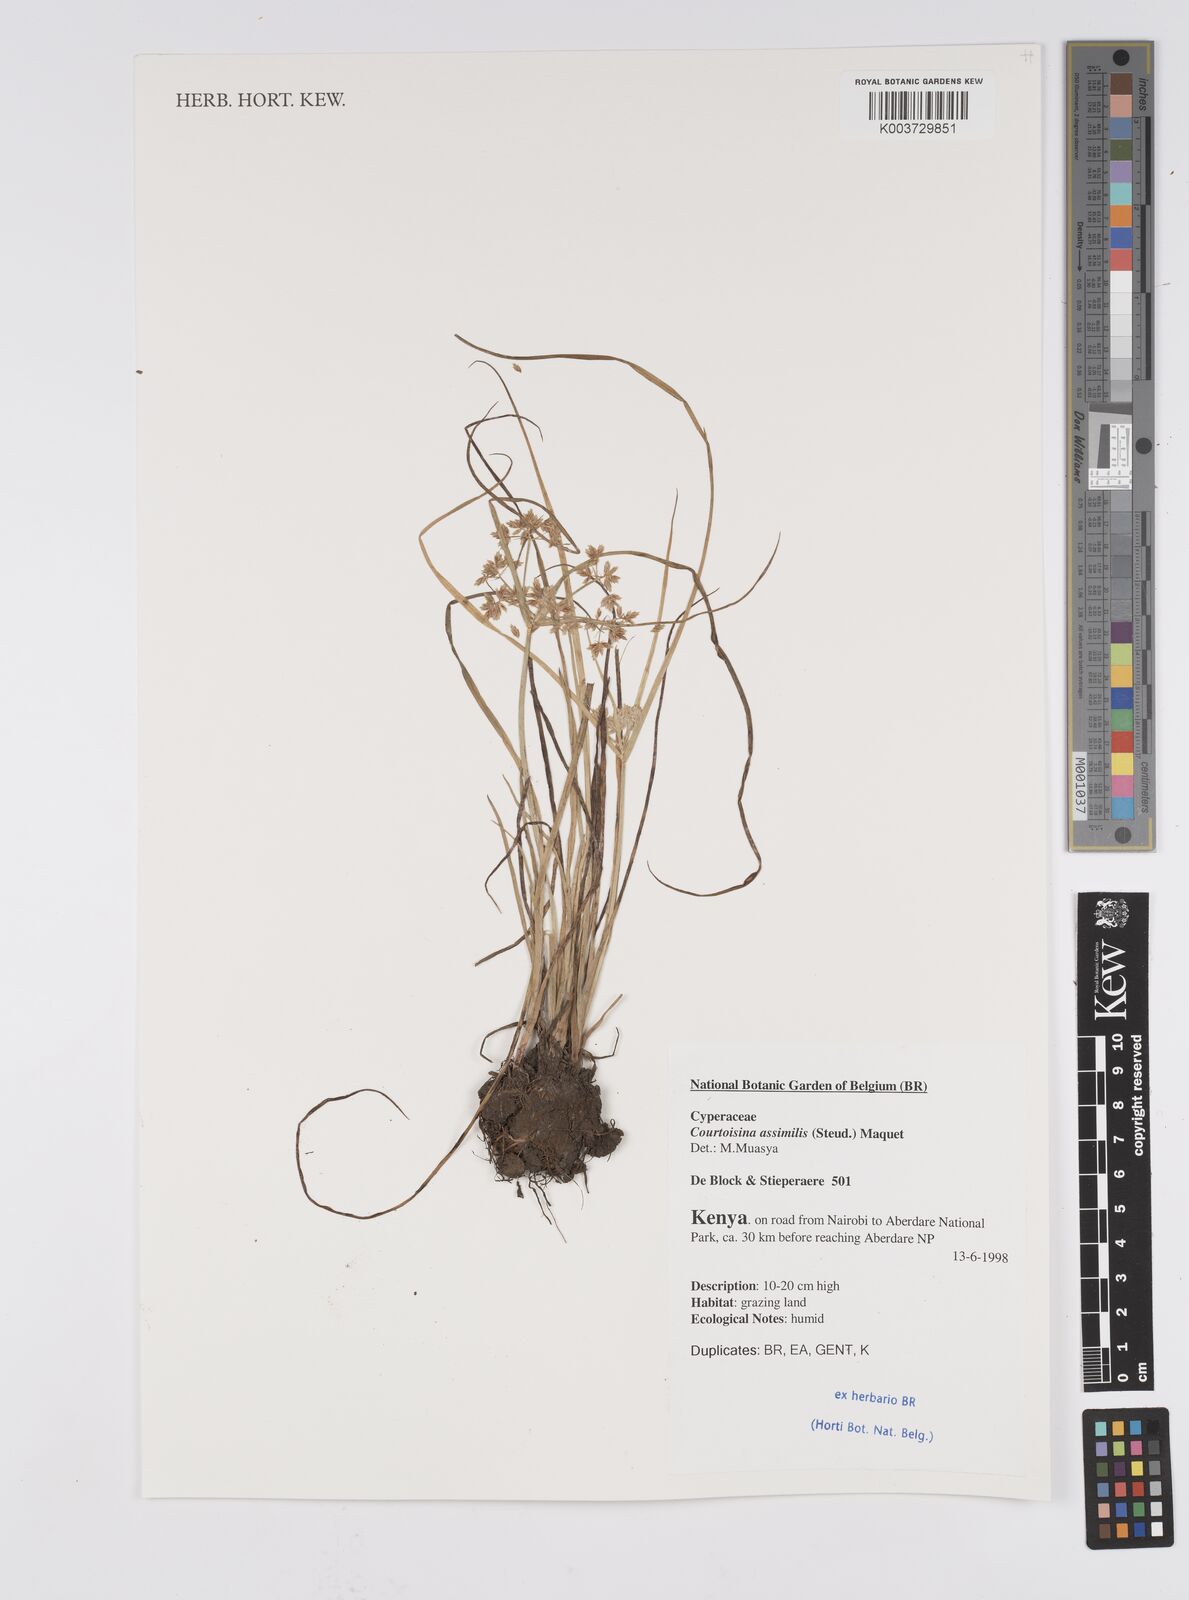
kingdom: Plantae
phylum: Tracheophyta
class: Liliopsida
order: Poales
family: Cyperaceae
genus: Cyperus
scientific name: Cyperus assimilis
